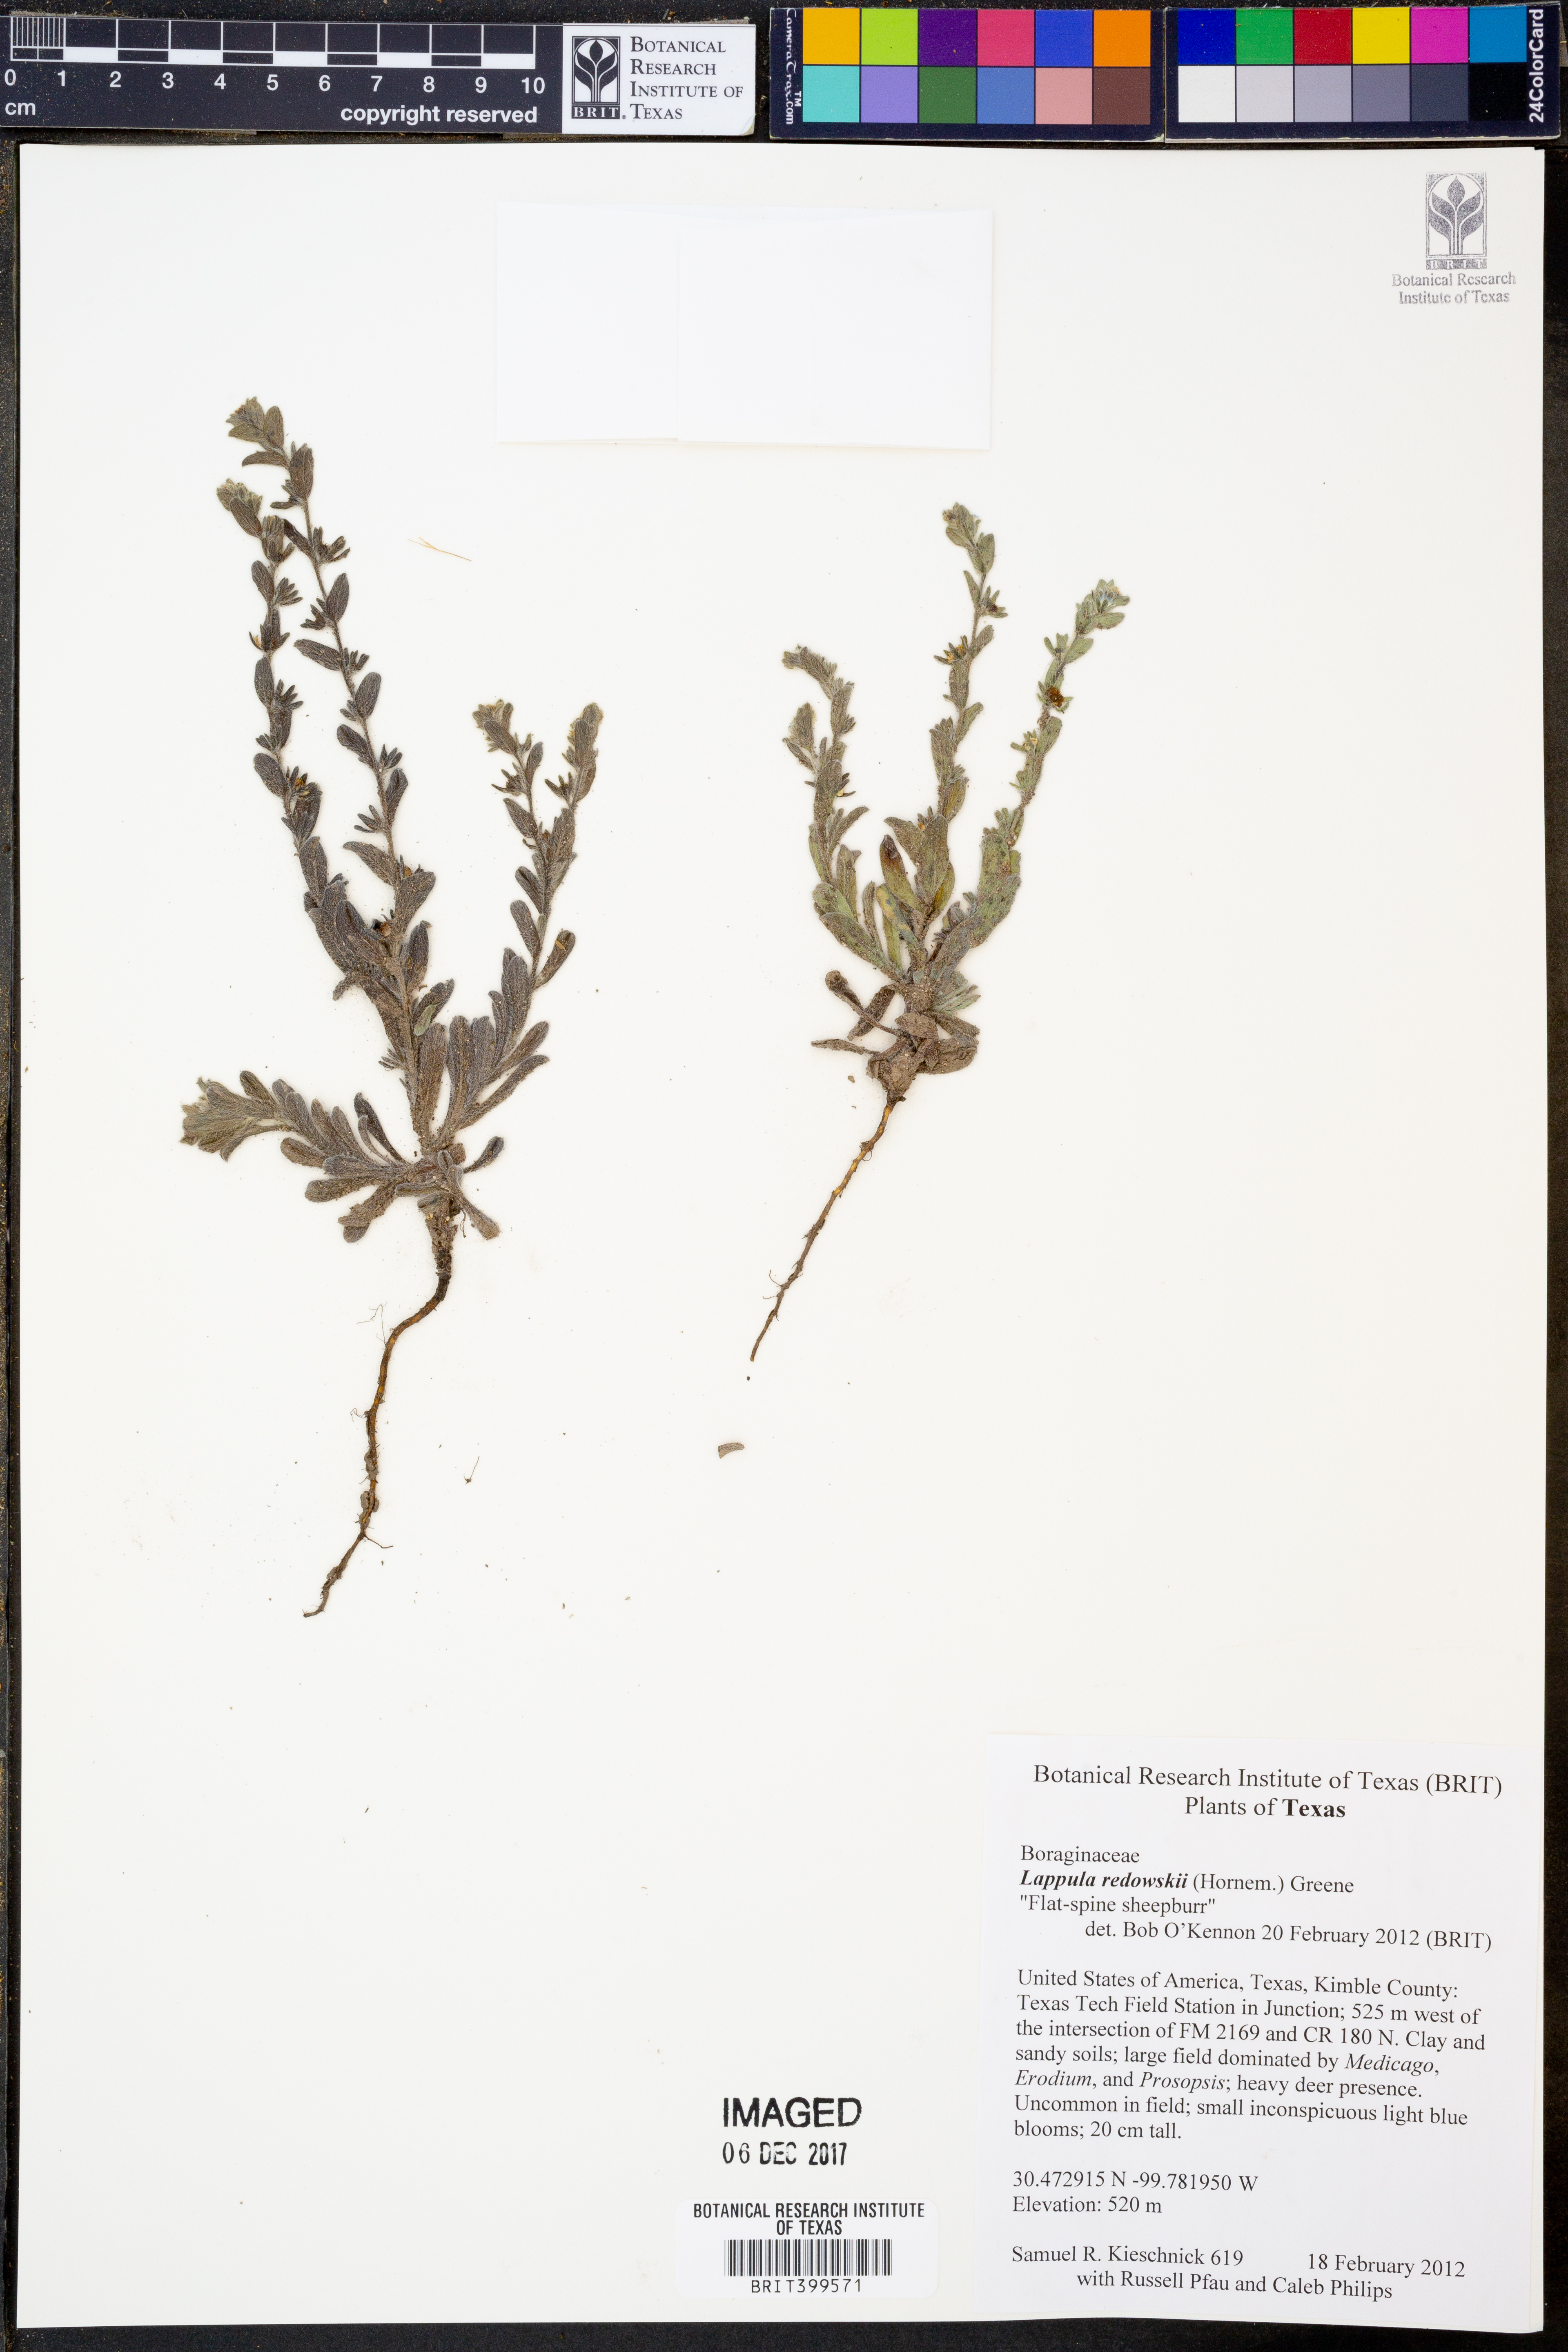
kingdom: Plantae
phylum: Tracheophyta
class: Magnoliopsida
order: Boraginales
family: Boraginaceae
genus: Lappula
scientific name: Lappula redowskii
